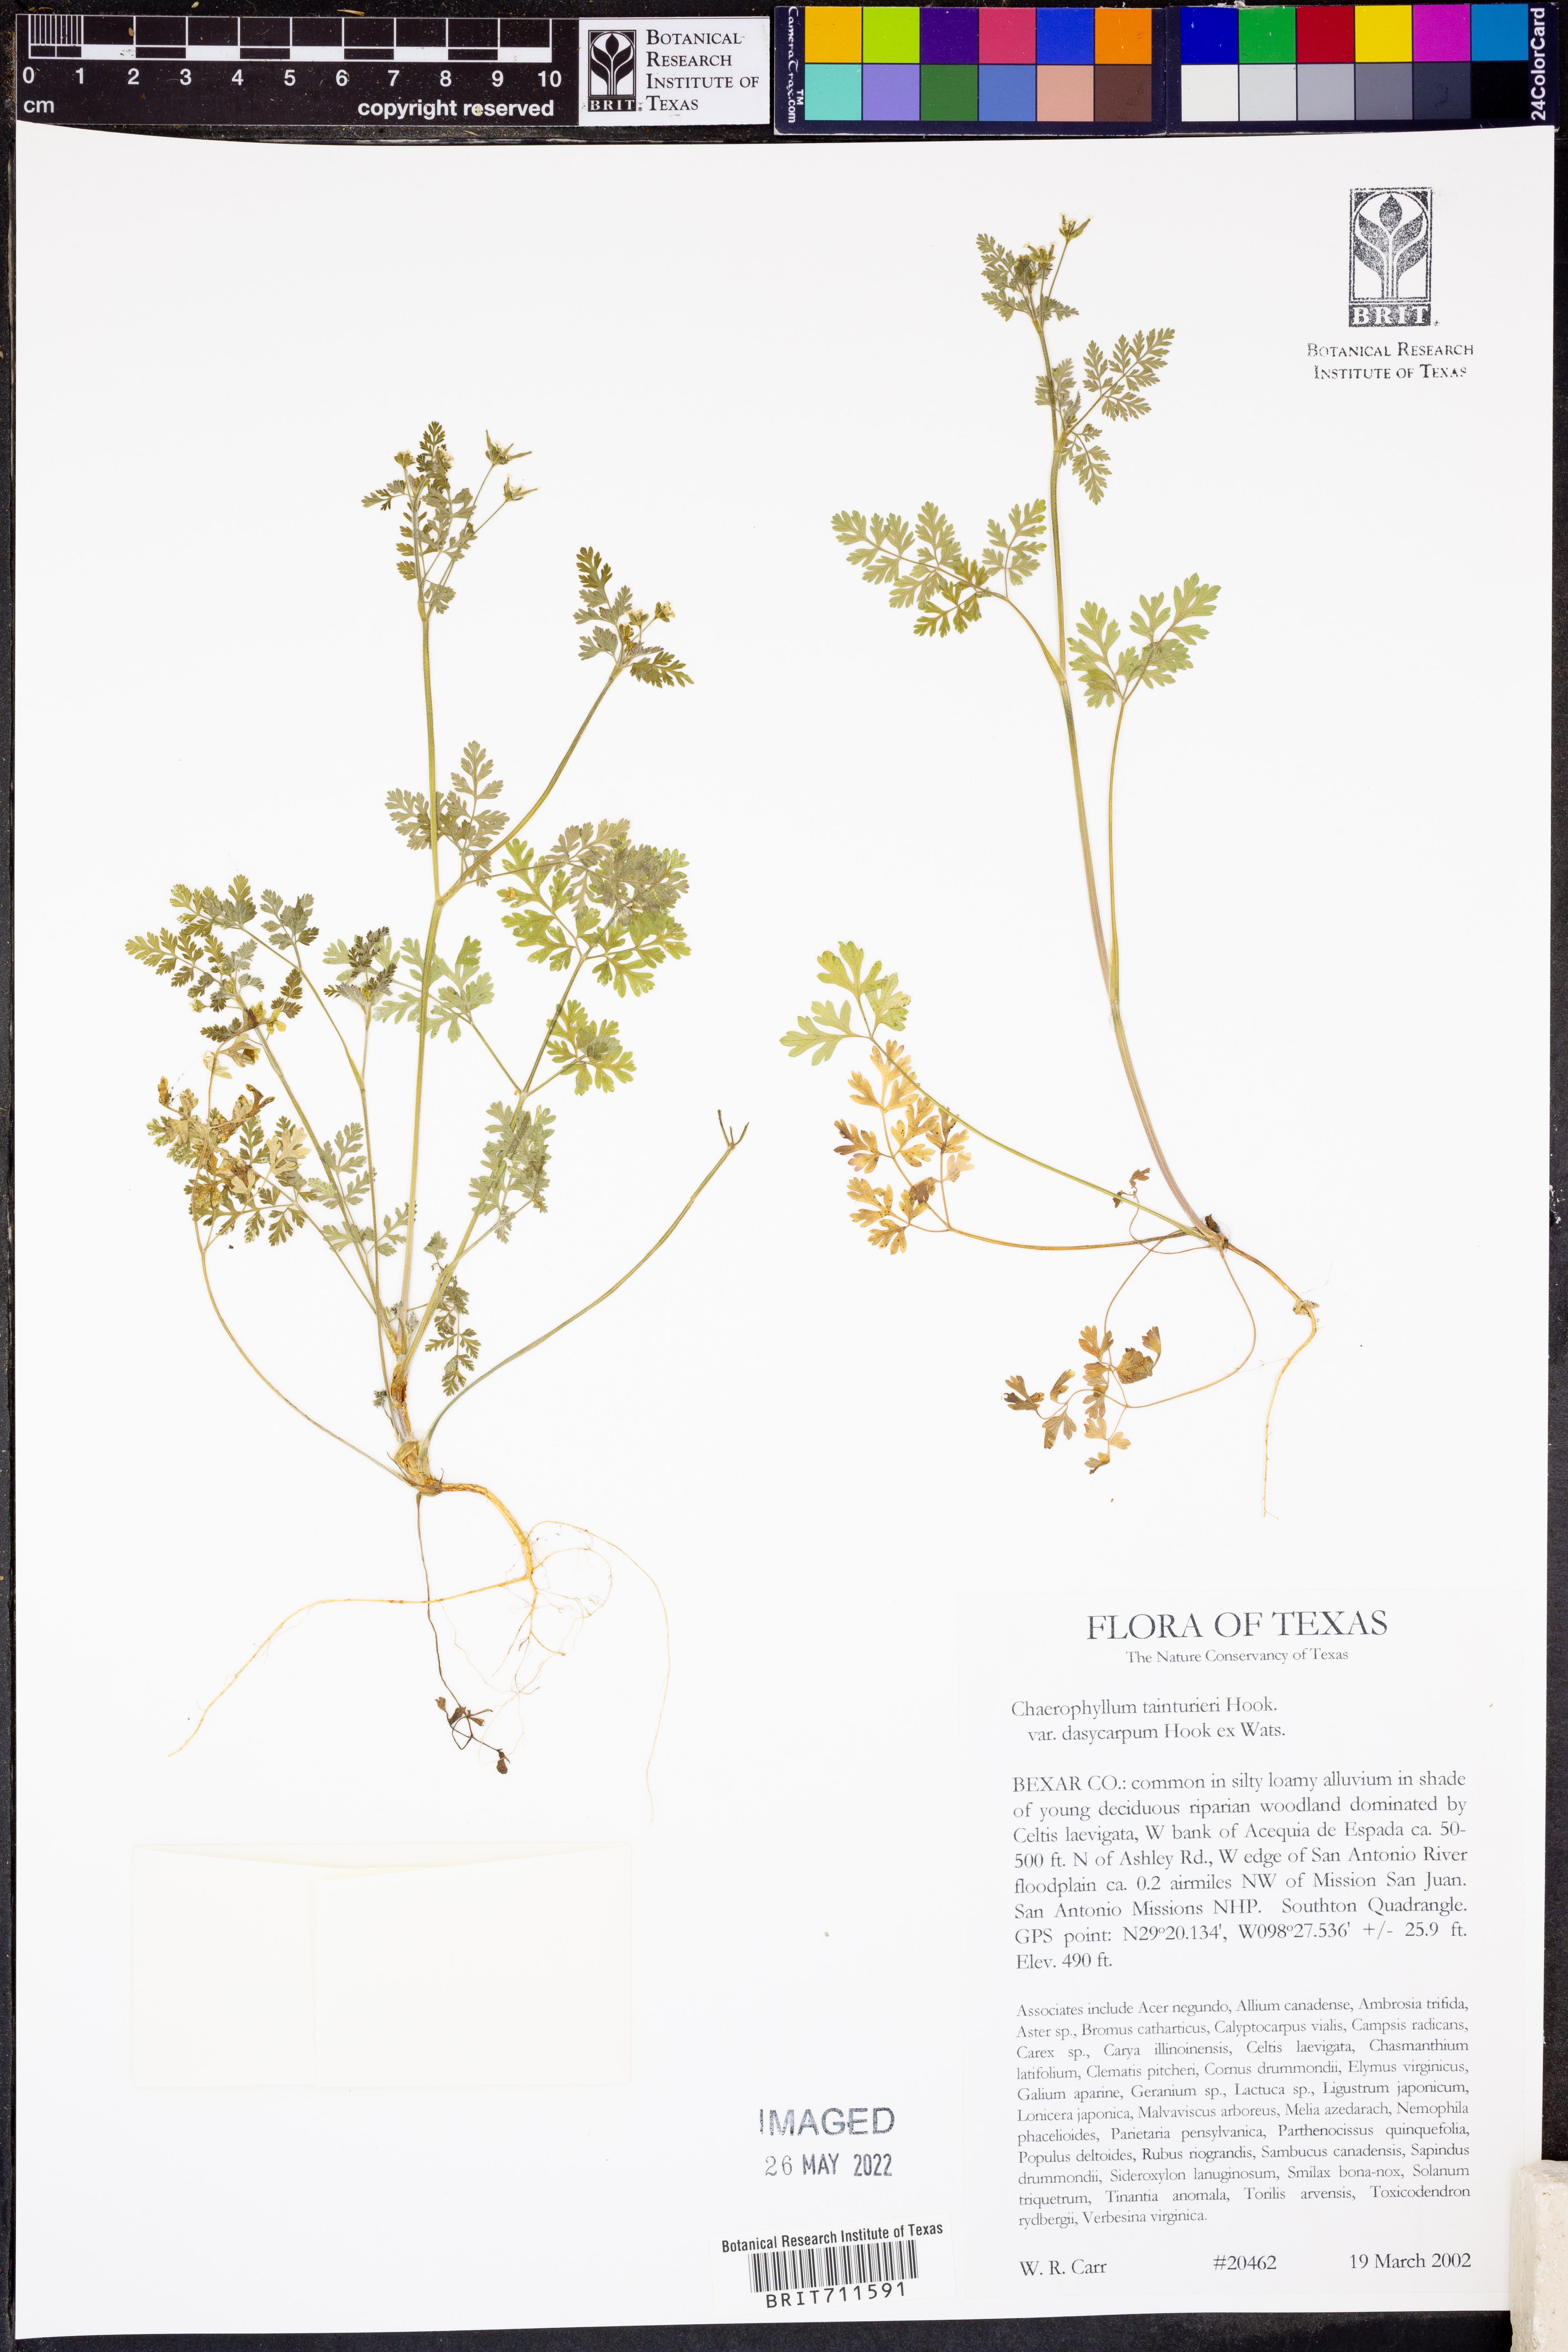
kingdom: Plantae
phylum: Tracheophyta
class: Magnoliopsida
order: Apiales
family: Apiaceae
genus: Chaerophyllum
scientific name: Chaerophyllum dasycarpum
